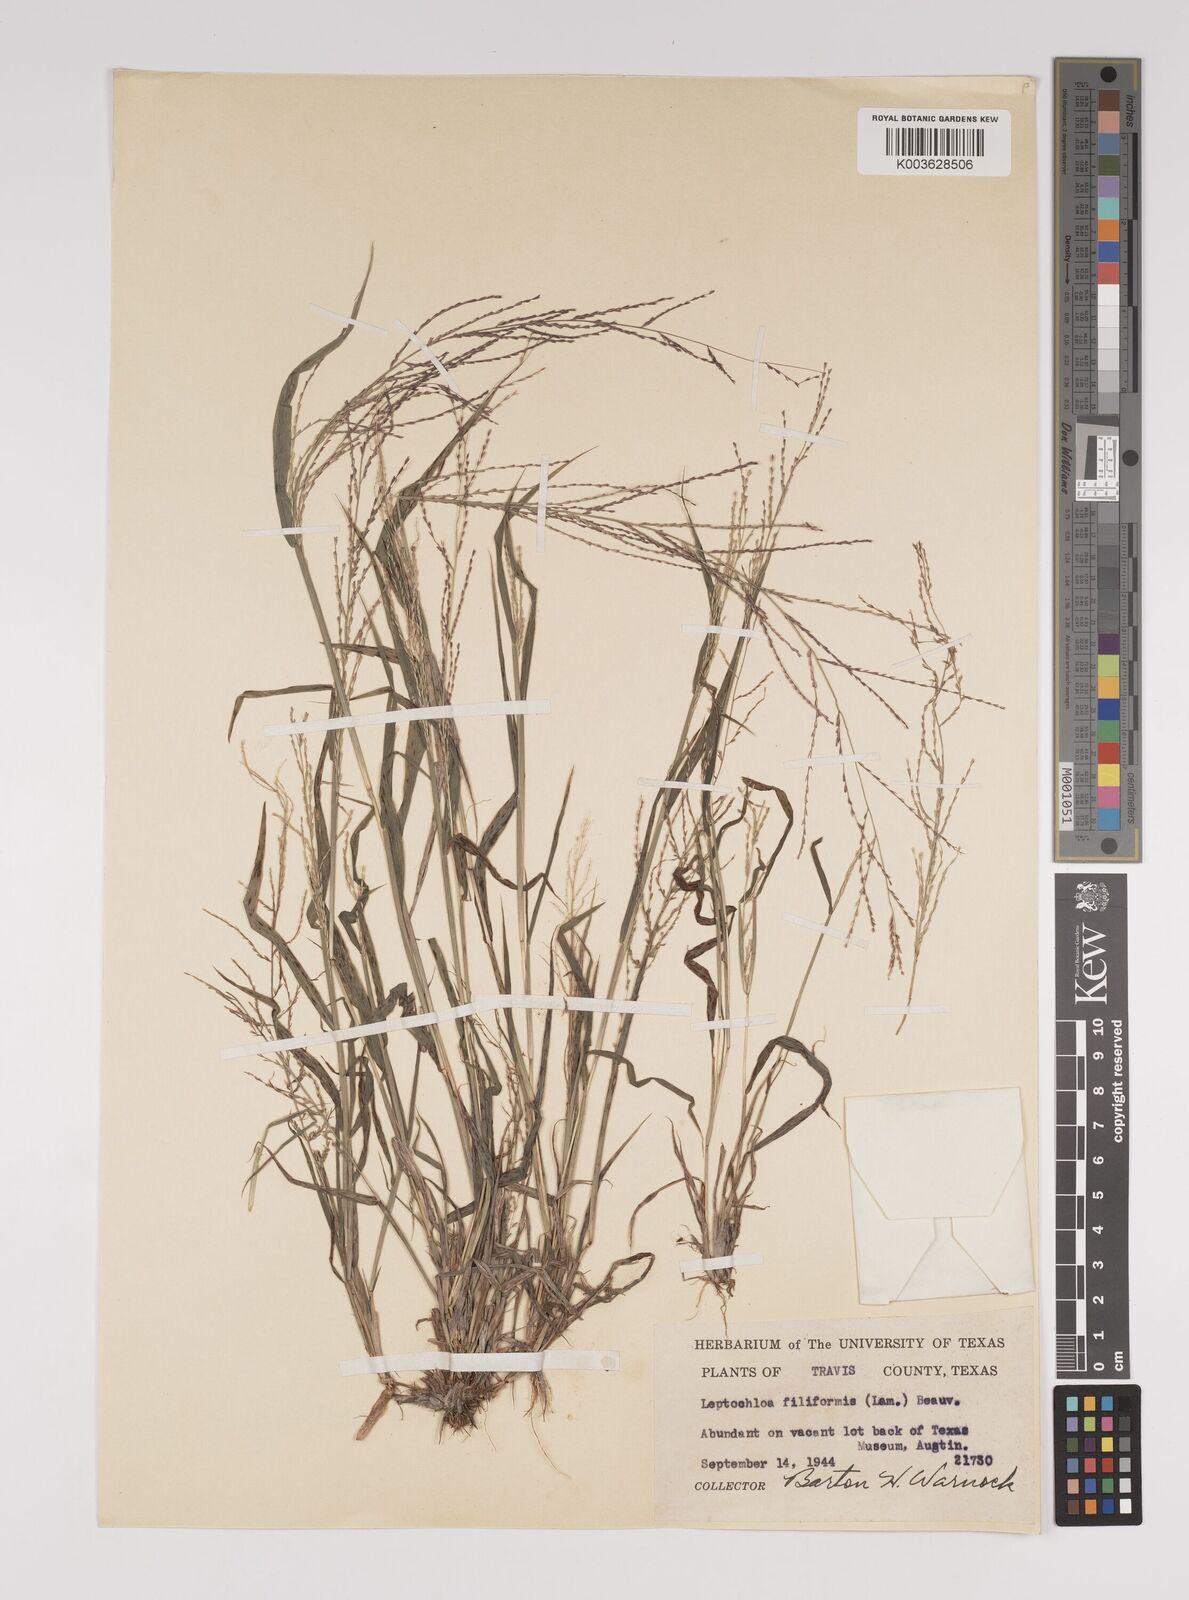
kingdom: Plantae
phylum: Tracheophyta
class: Liliopsida
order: Poales
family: Poaceae
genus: Leptochloa
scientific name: Leptochloa panicea
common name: Mucronate sprangletop
